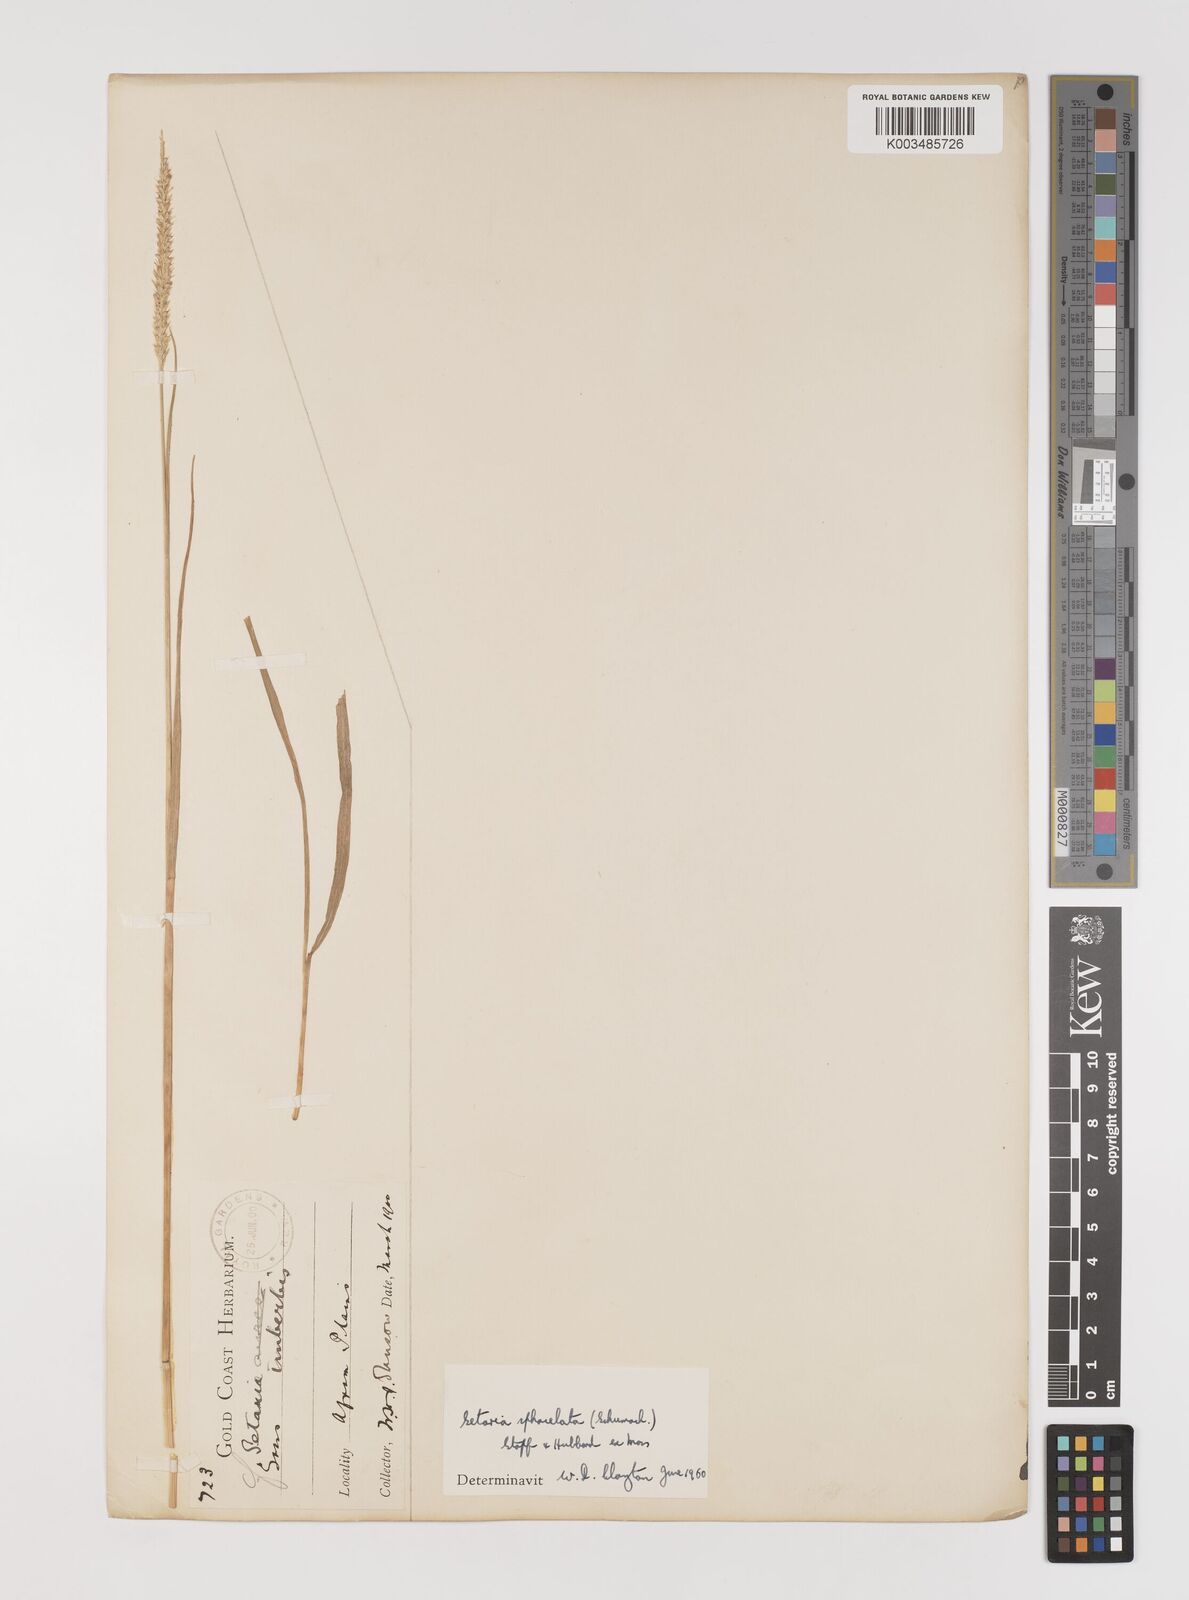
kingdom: Plantae
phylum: Tracheophyta
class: Liliopsida
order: Poales
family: Poaceae
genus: Setaria
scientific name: Setaria sphacelata
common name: African bristlegrass
